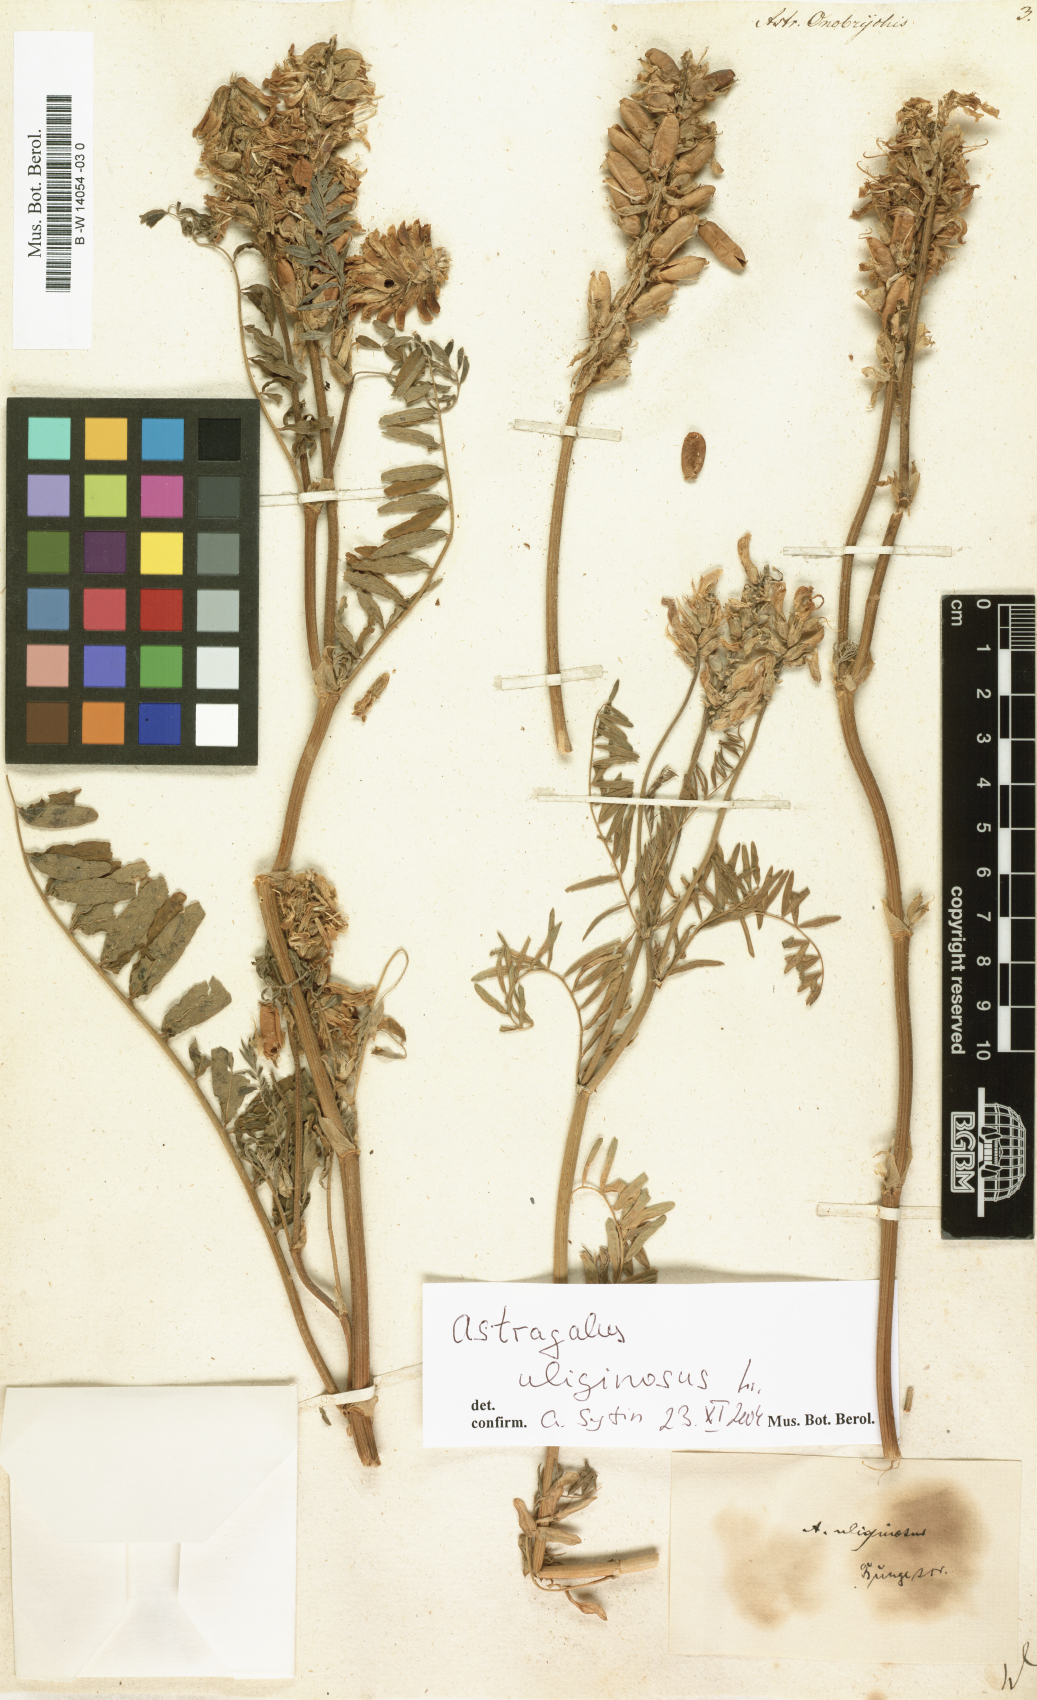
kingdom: Plantae
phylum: Tracheophyta
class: Magnoliopsida
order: Fabales
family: Fabaceae
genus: Astragalus
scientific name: Astragalus onobrychis
